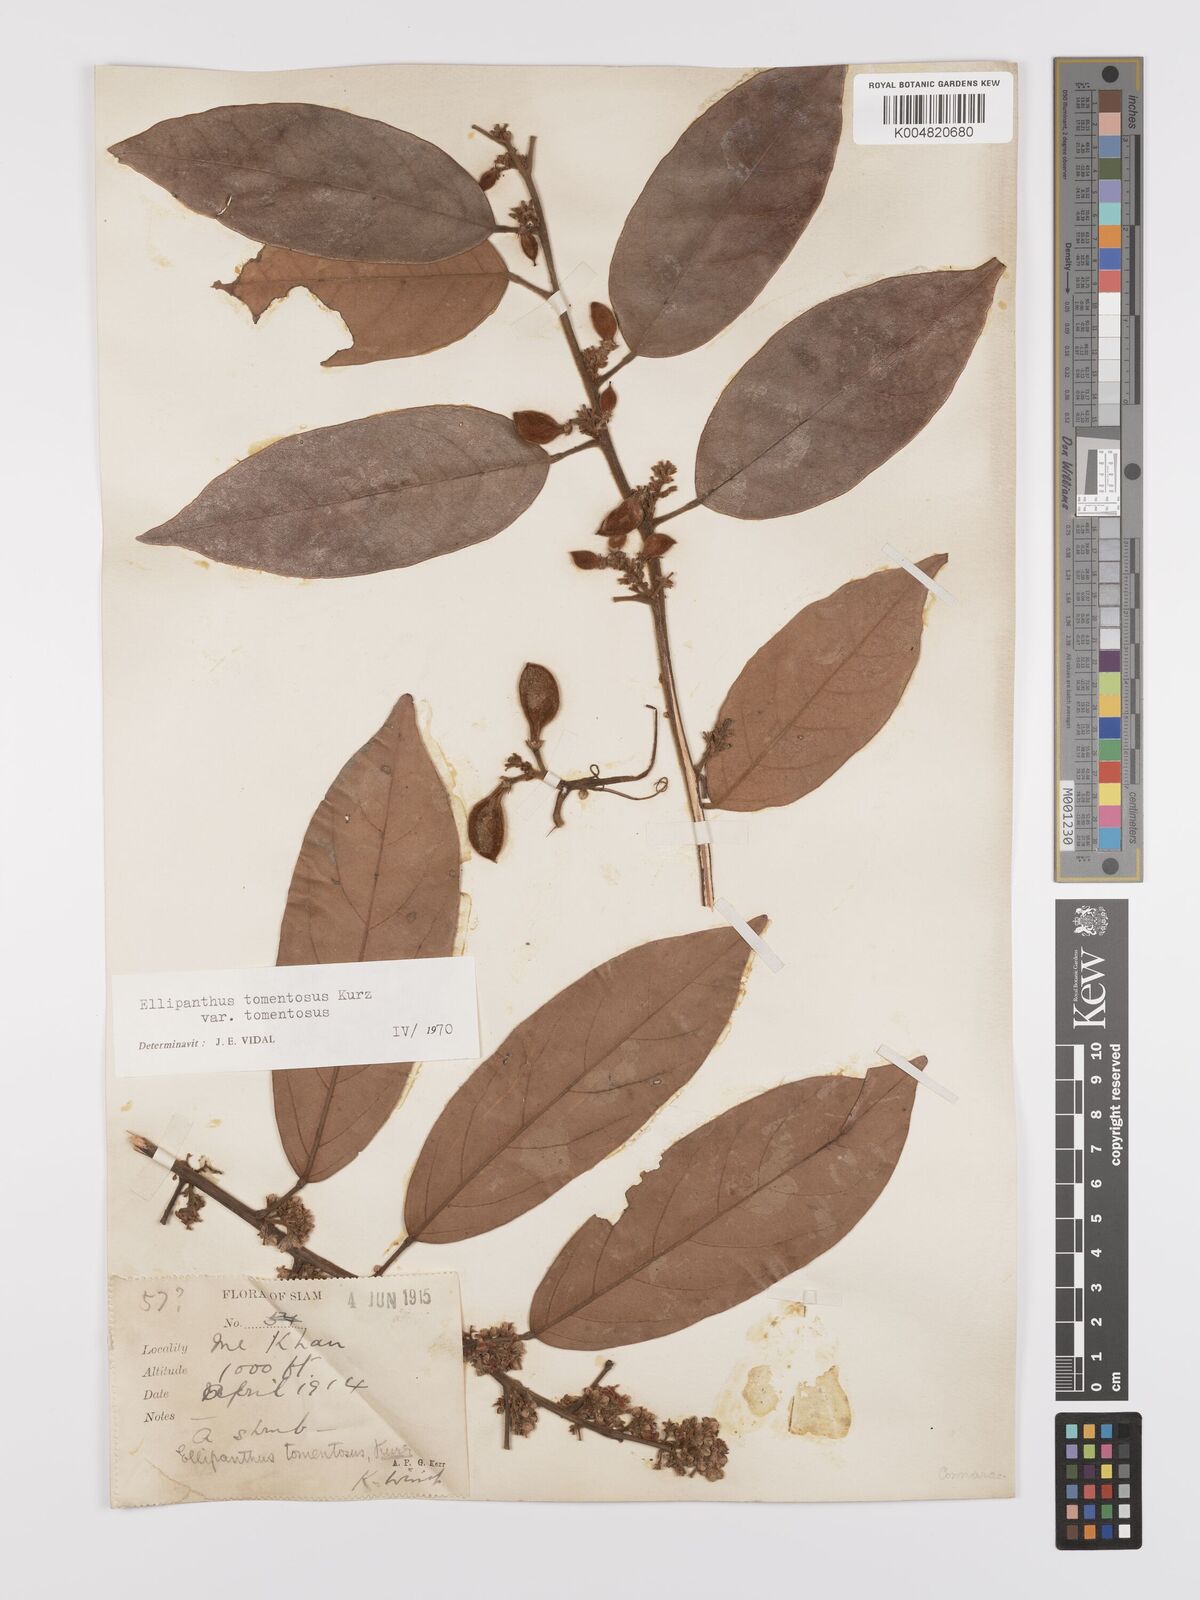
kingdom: Plantae
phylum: Tracheophyta
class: Magnoliopsida
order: Oxalidales
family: Connaraceae
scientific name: Connaraceae
